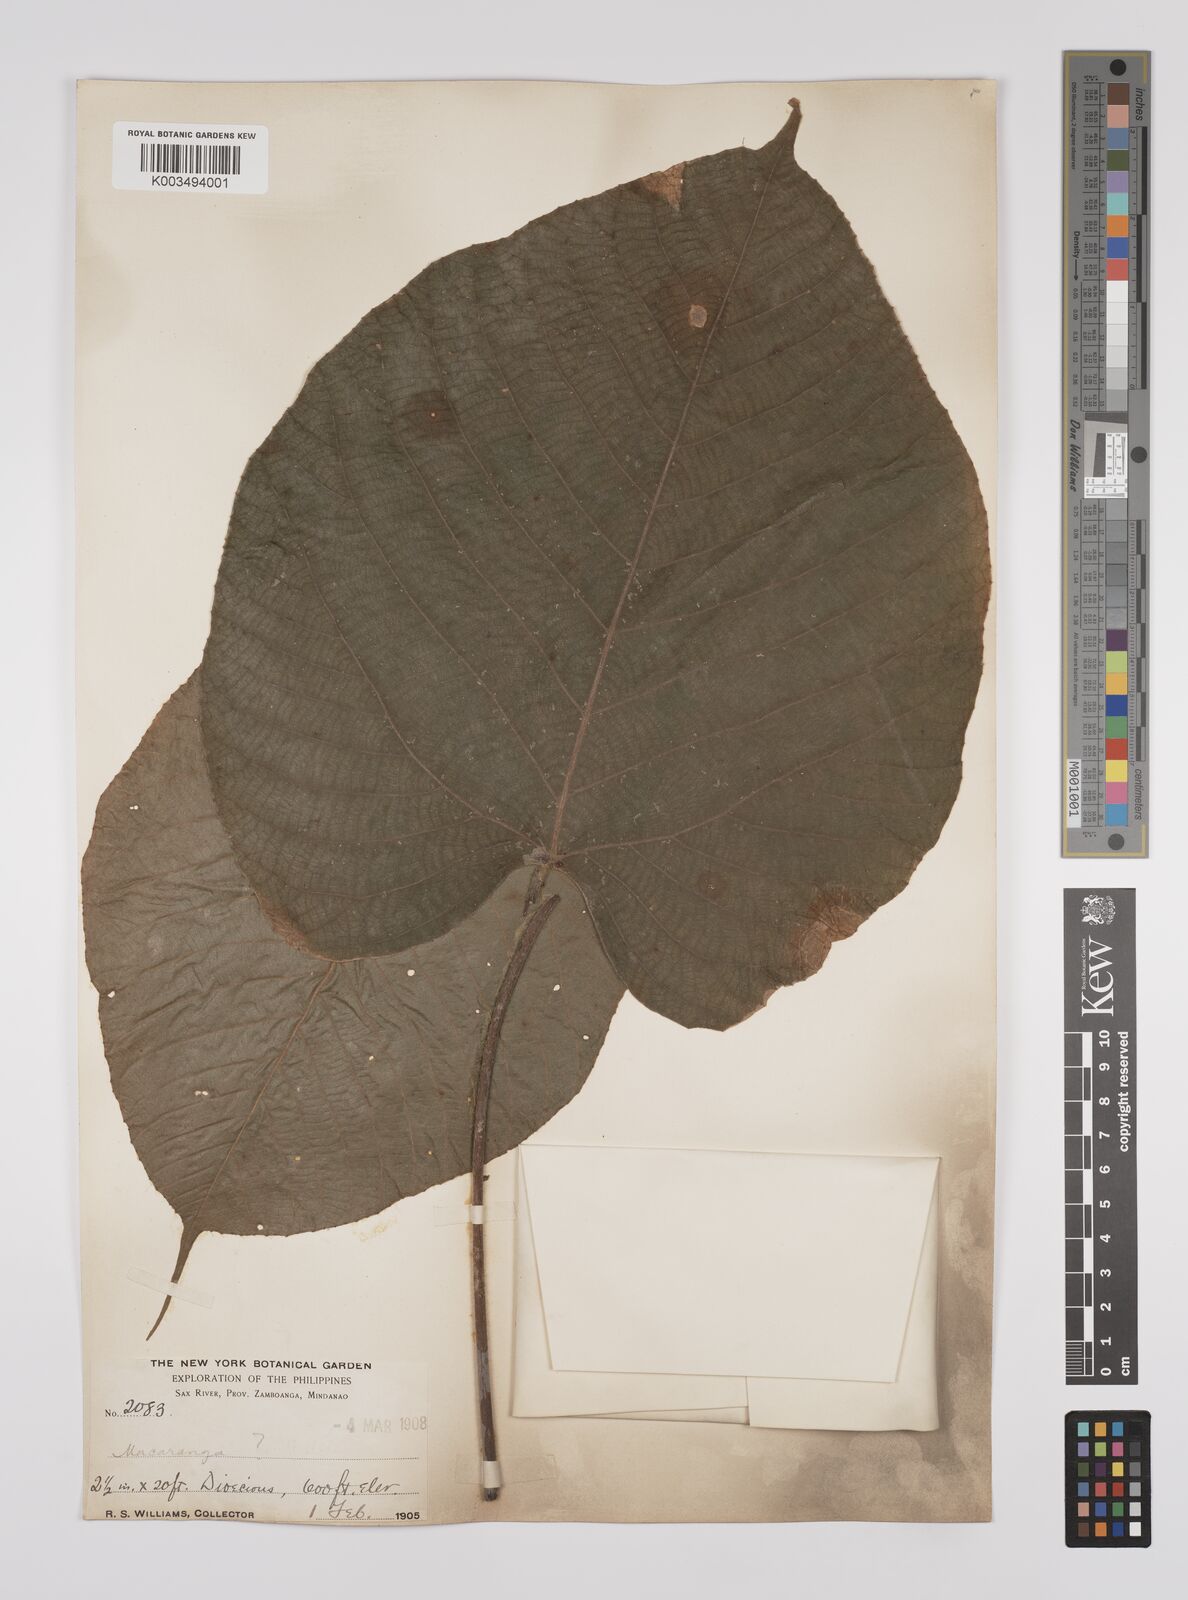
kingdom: Plantae
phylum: Tracheophyta
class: Magnoliopsida
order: Malpighiales
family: Euphorbiaceae
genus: Macaranga
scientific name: Macaranga hispida
